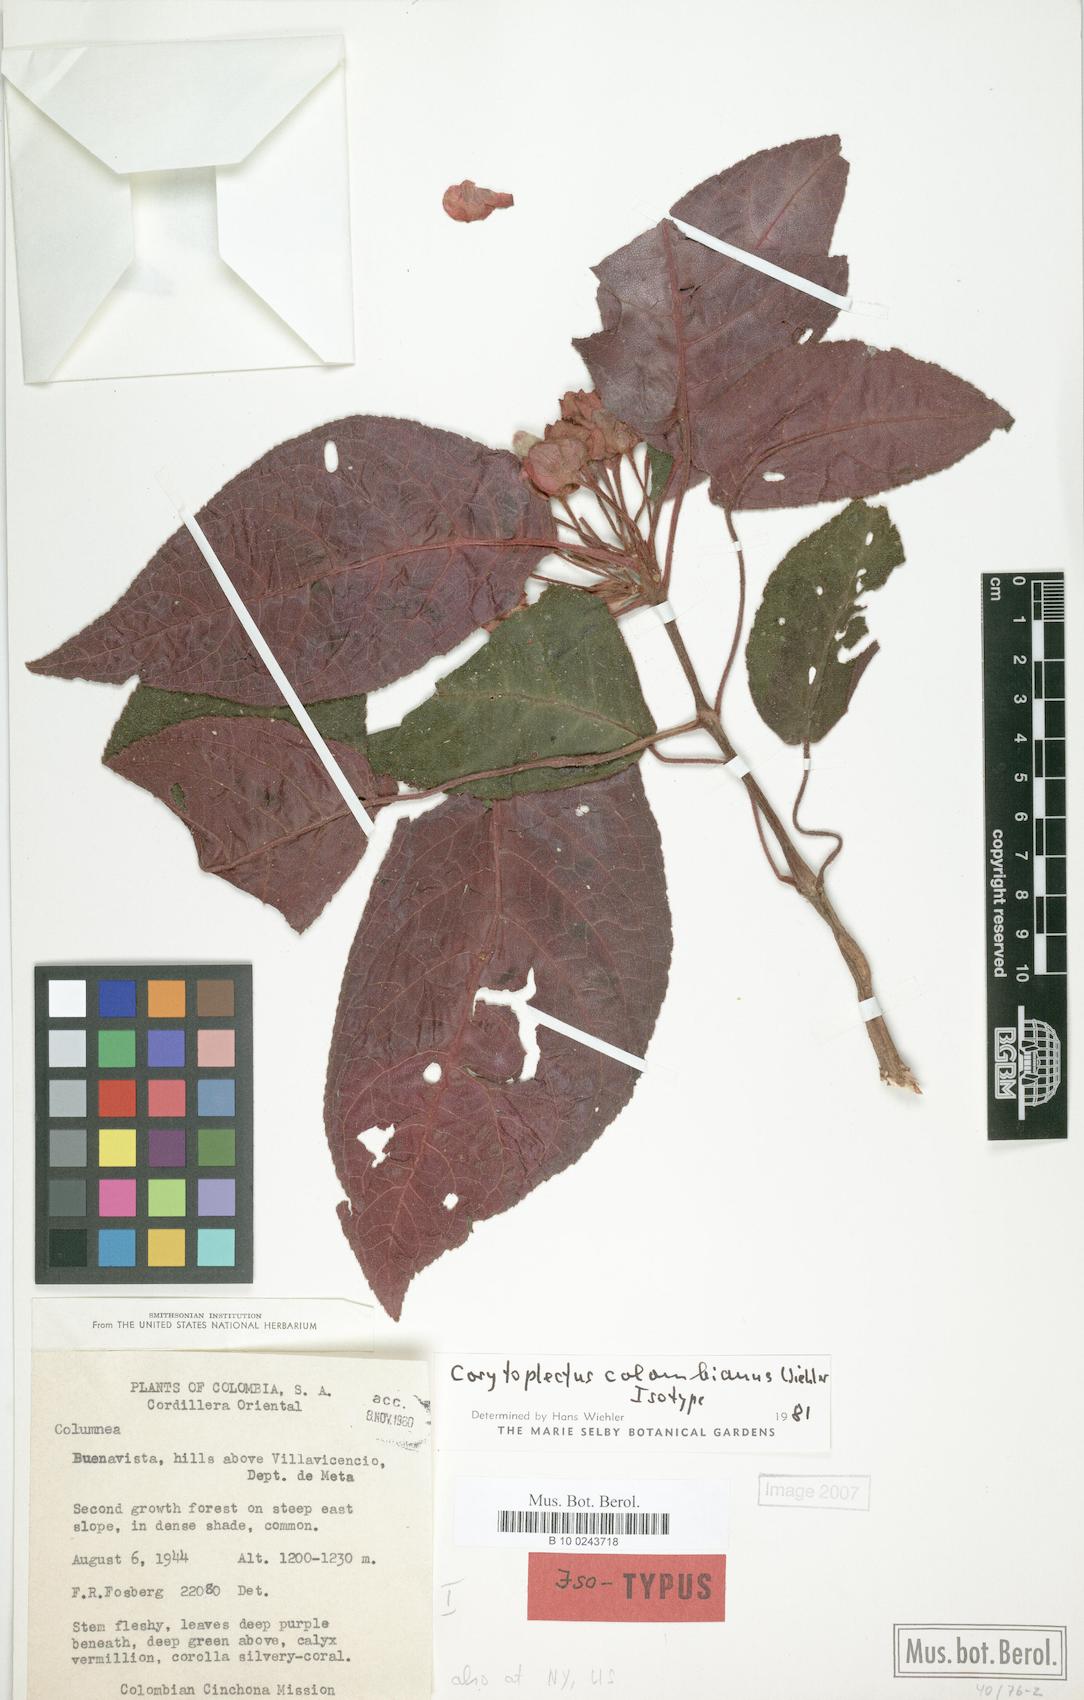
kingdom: Plantae
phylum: Tracheophyta
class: Magnoliopsida
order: Lamiales
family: Gesneriaceae
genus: Corytoplectus
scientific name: Corytoplectus
